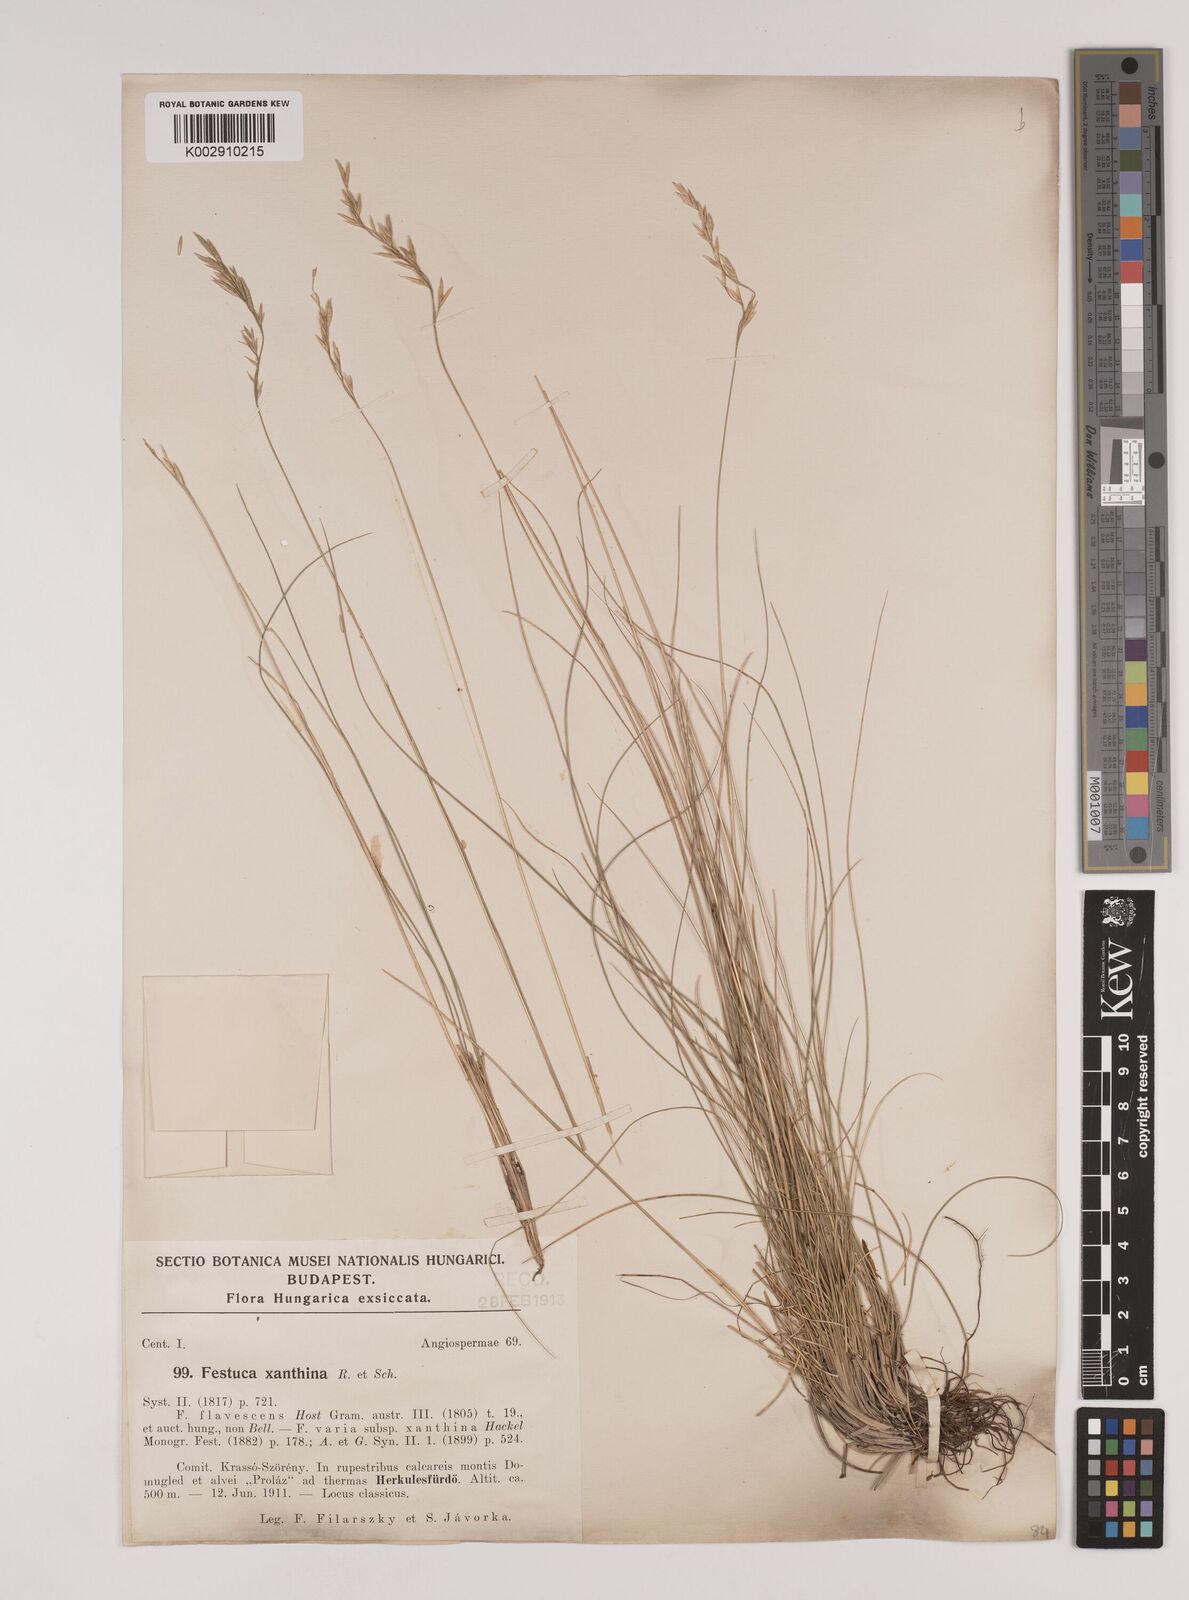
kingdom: Plantae
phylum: Tracheophyta
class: Liliopsida
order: Poales
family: Poaceae
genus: Festuca
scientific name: Festuca xanthina
